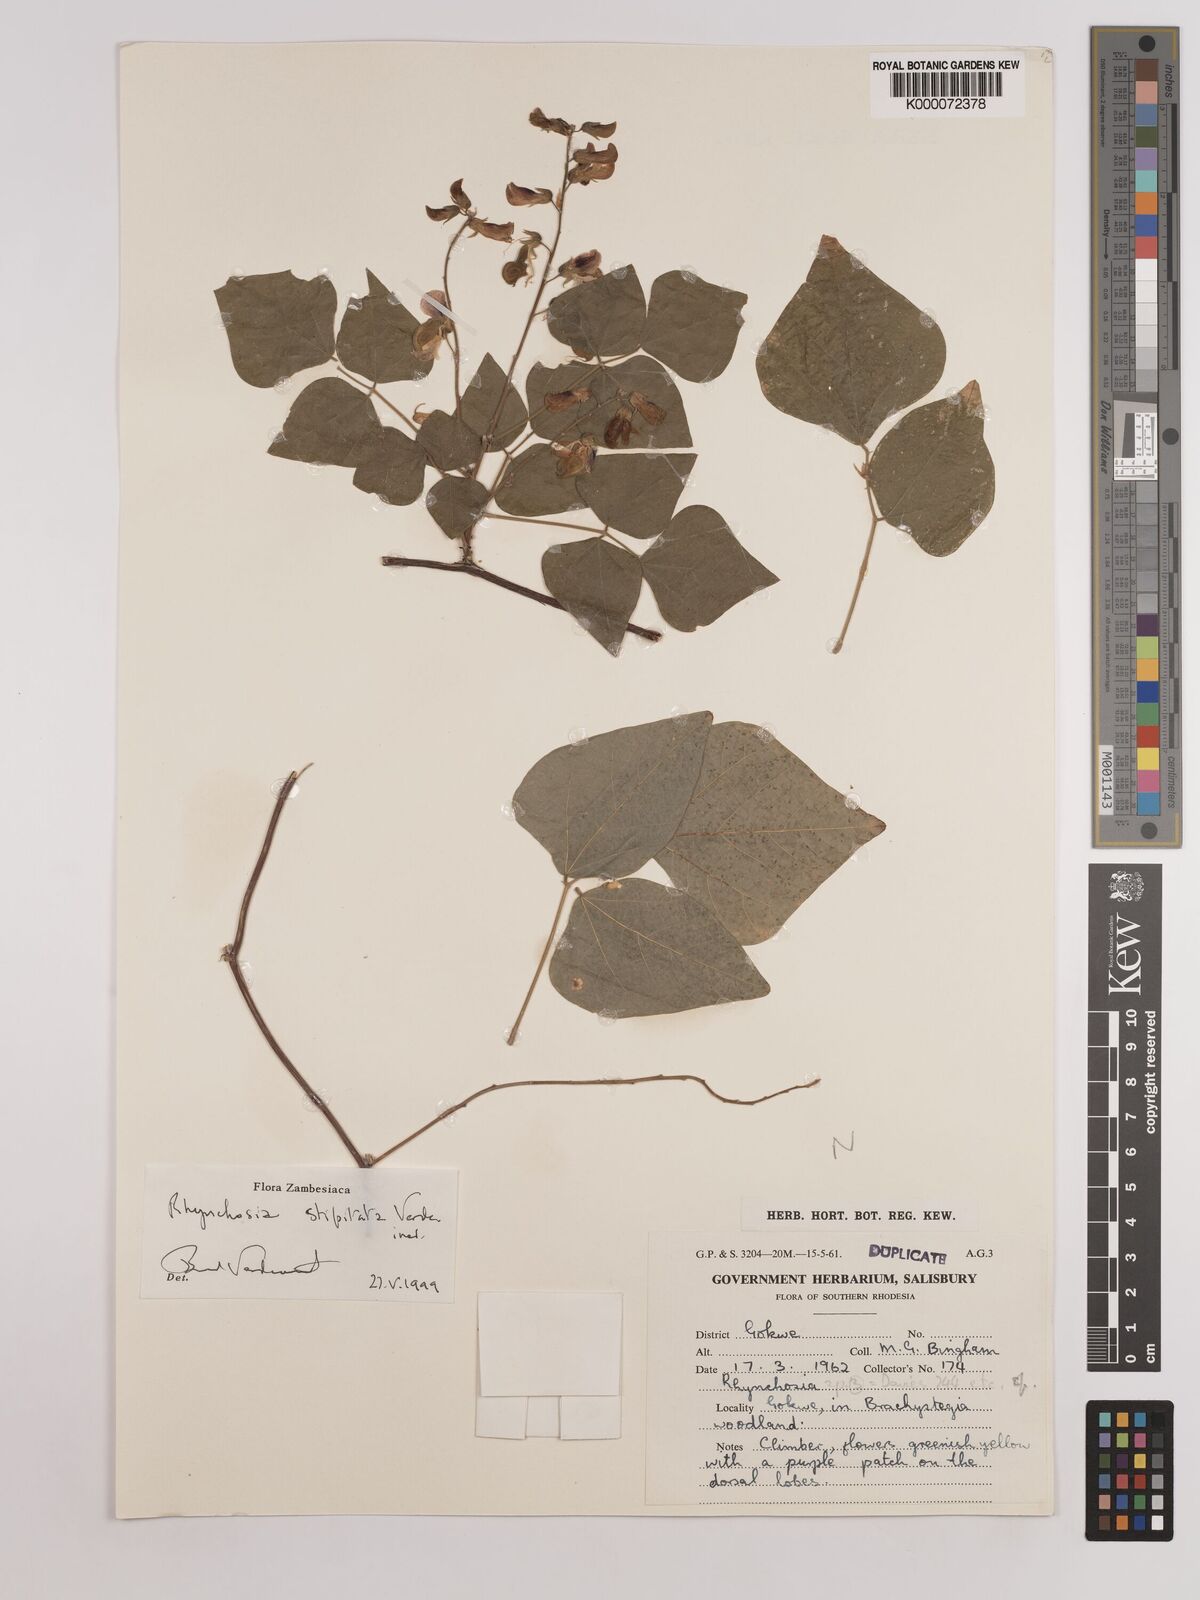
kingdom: Plantae
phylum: Tracheophyta
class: Magnoliopsida
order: Fabales
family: Fabaceae
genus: Rhynchosia
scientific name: Rhynchosia stipitata
